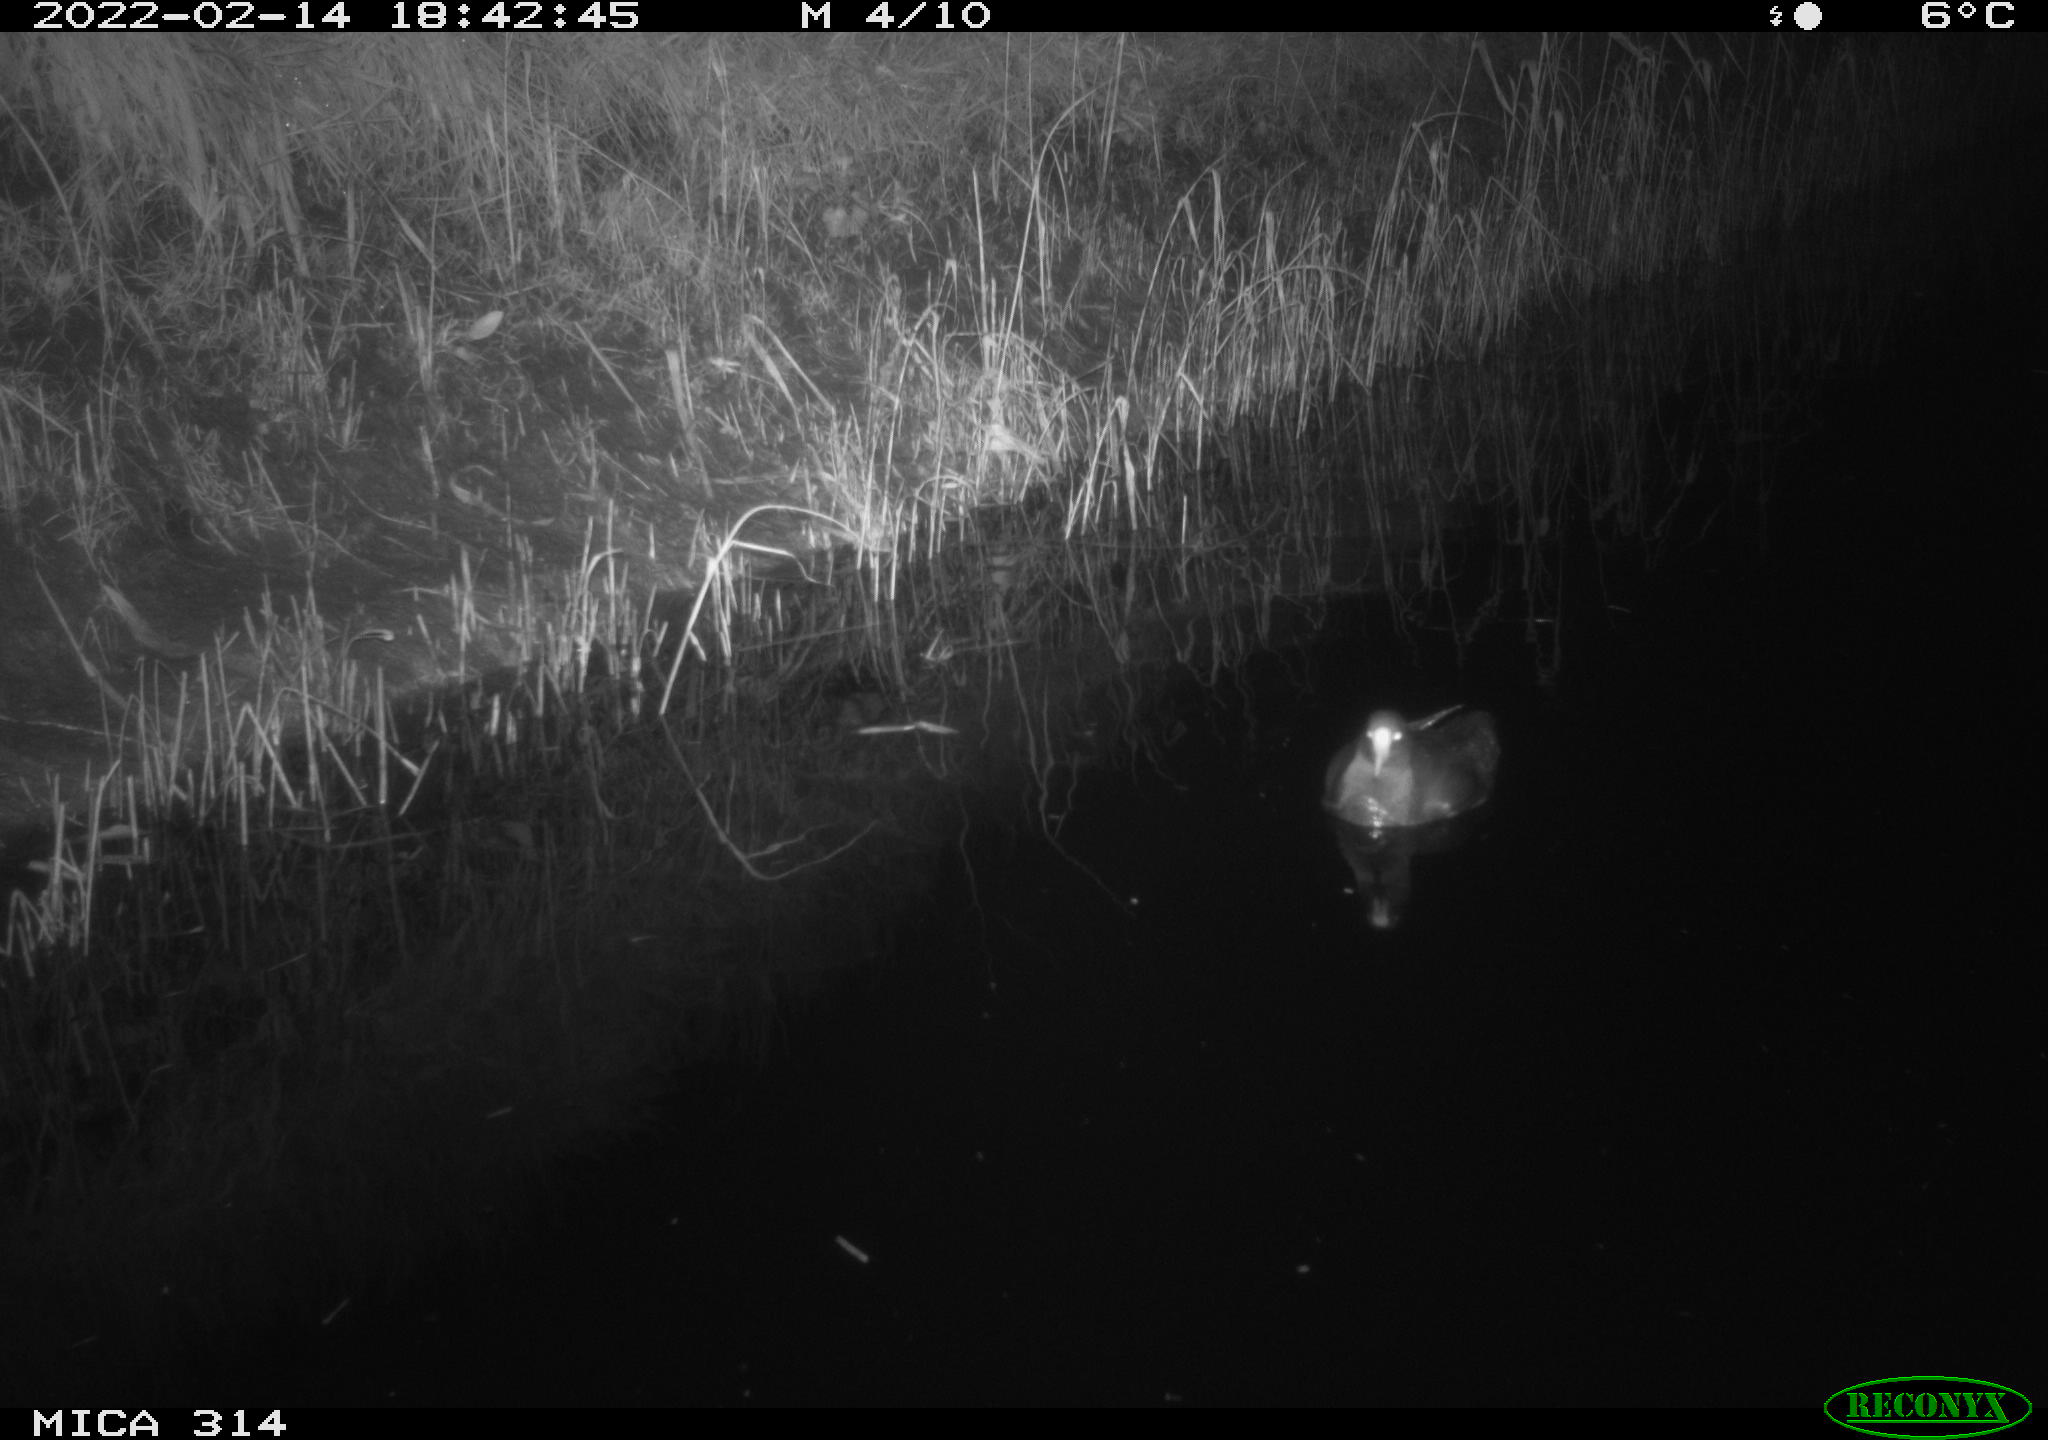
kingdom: Animalia
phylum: Chordata
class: Aves
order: Gruiformes
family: Rallidae
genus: Gallinula
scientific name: Gallinula chloropus
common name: Common moorhen
